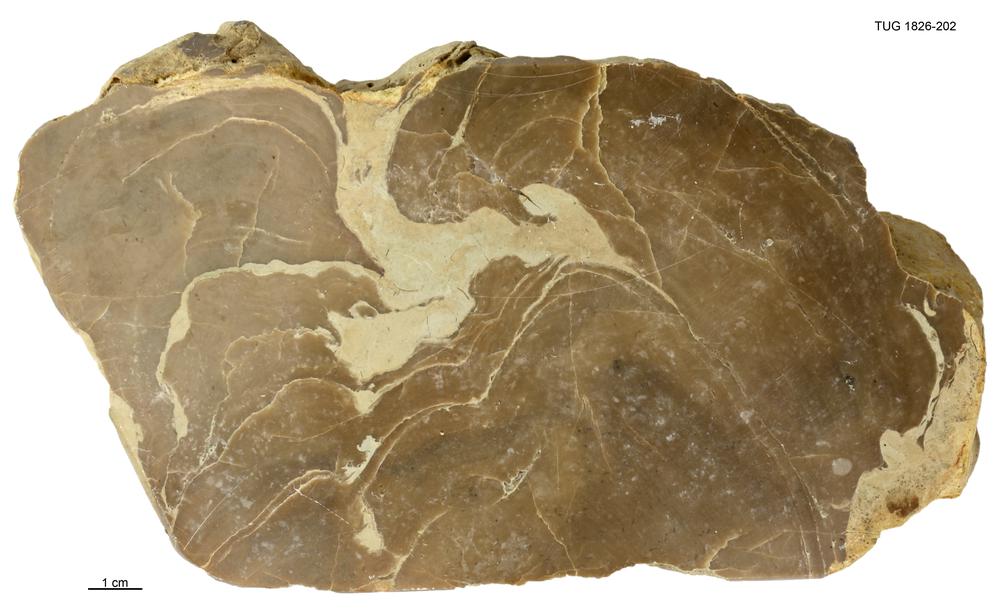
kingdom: Animalia
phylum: Porifera
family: Stromatoporidae
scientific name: Stromatoporidae
